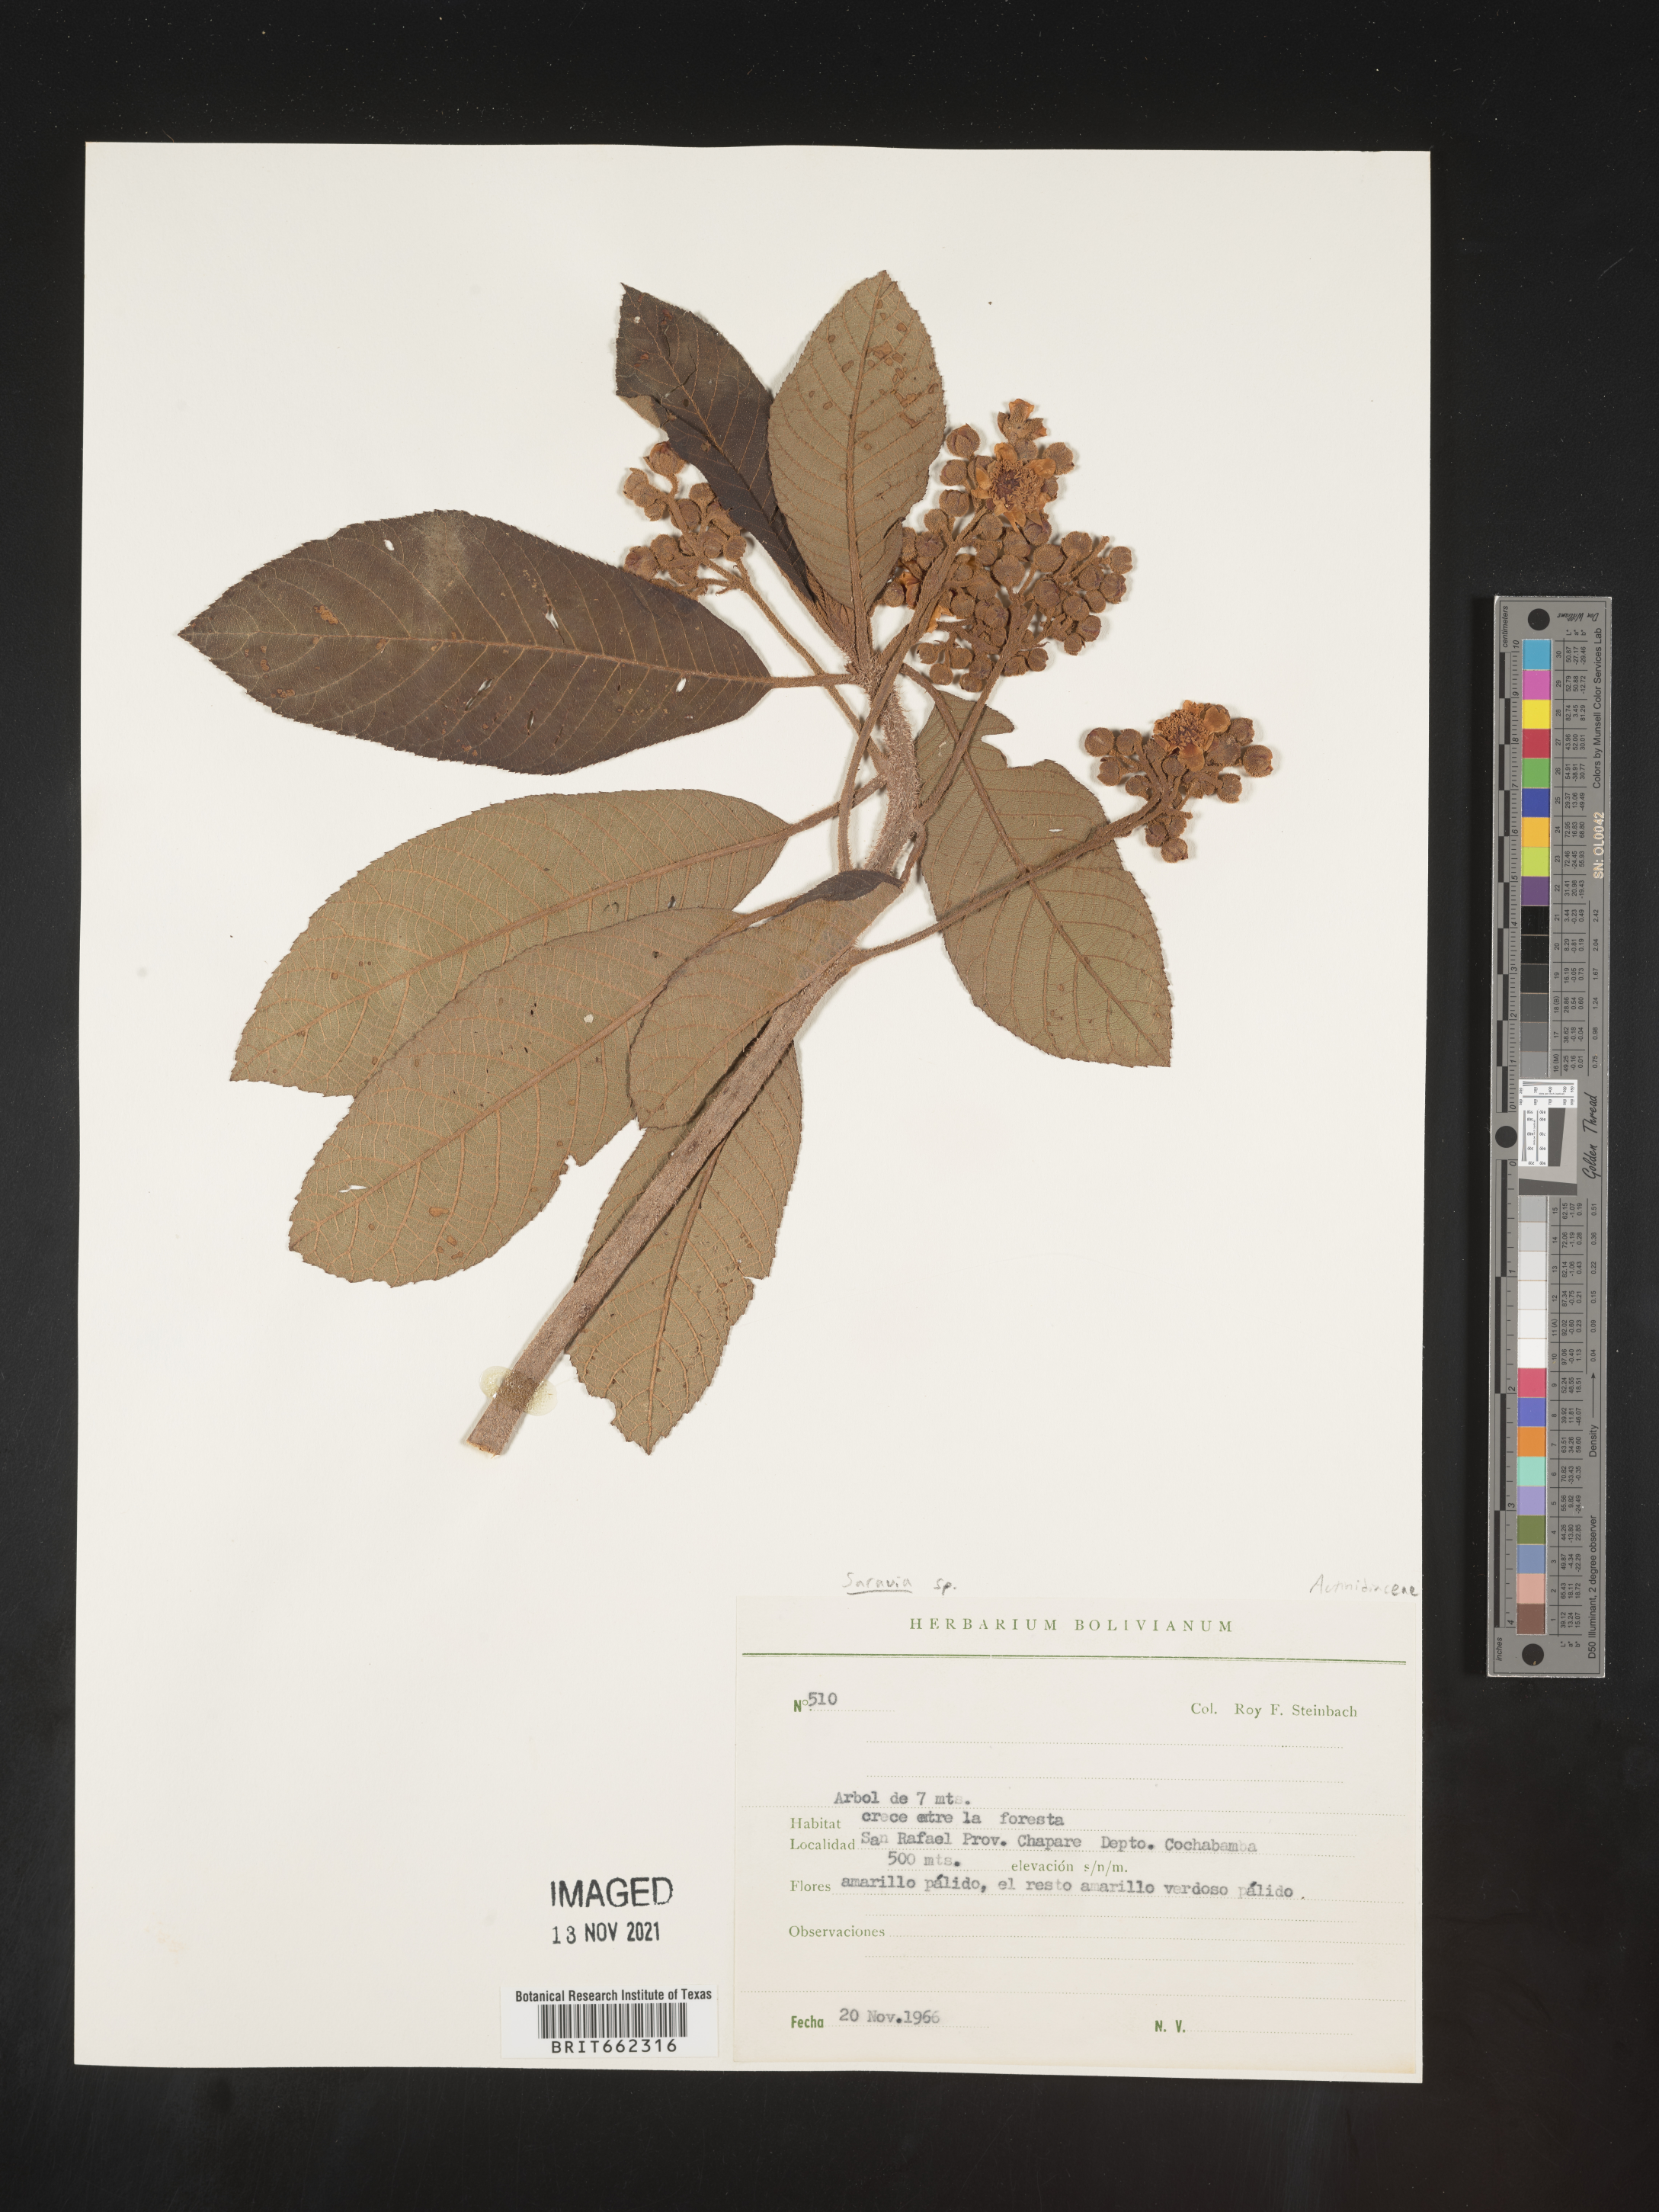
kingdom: Plantae
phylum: Tracheophyta
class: Magnoliopsida
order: Ericales
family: Actinidiaceae
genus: Saurauia
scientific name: Saurauia
